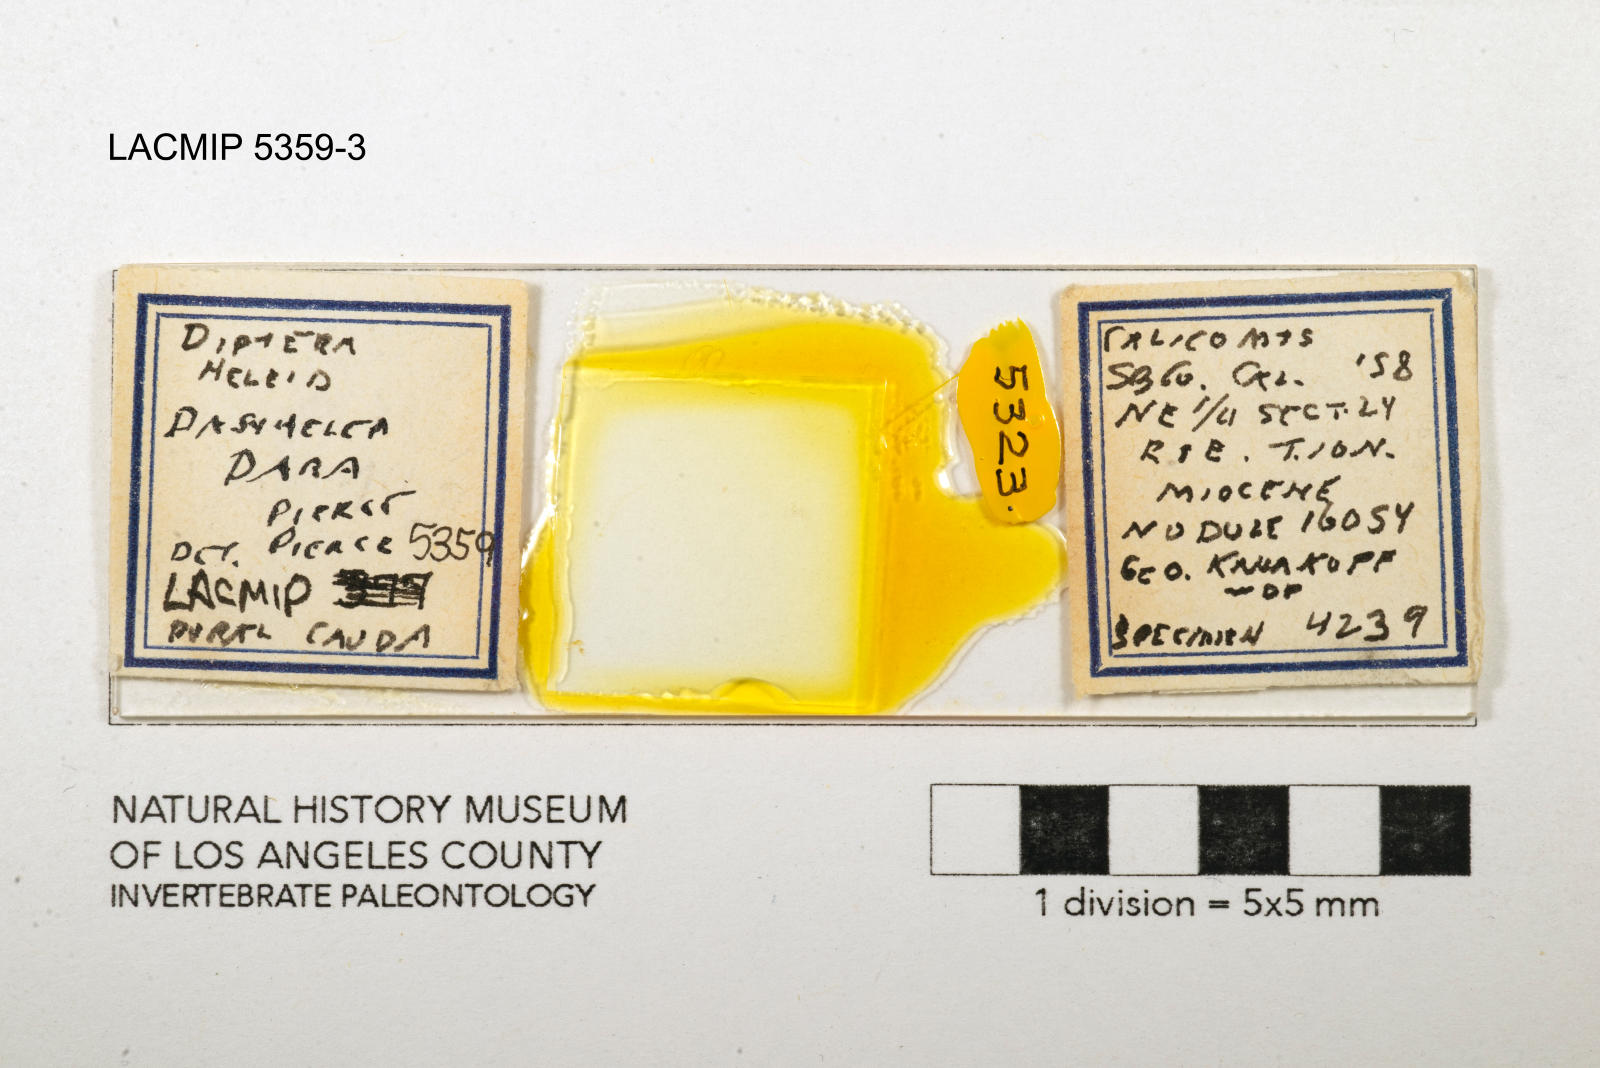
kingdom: Animalia
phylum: Arthropoda
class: Insecta
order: Diptera
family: Ceratopogonidae
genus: Dasyhelea
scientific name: Dasyhelea dara
